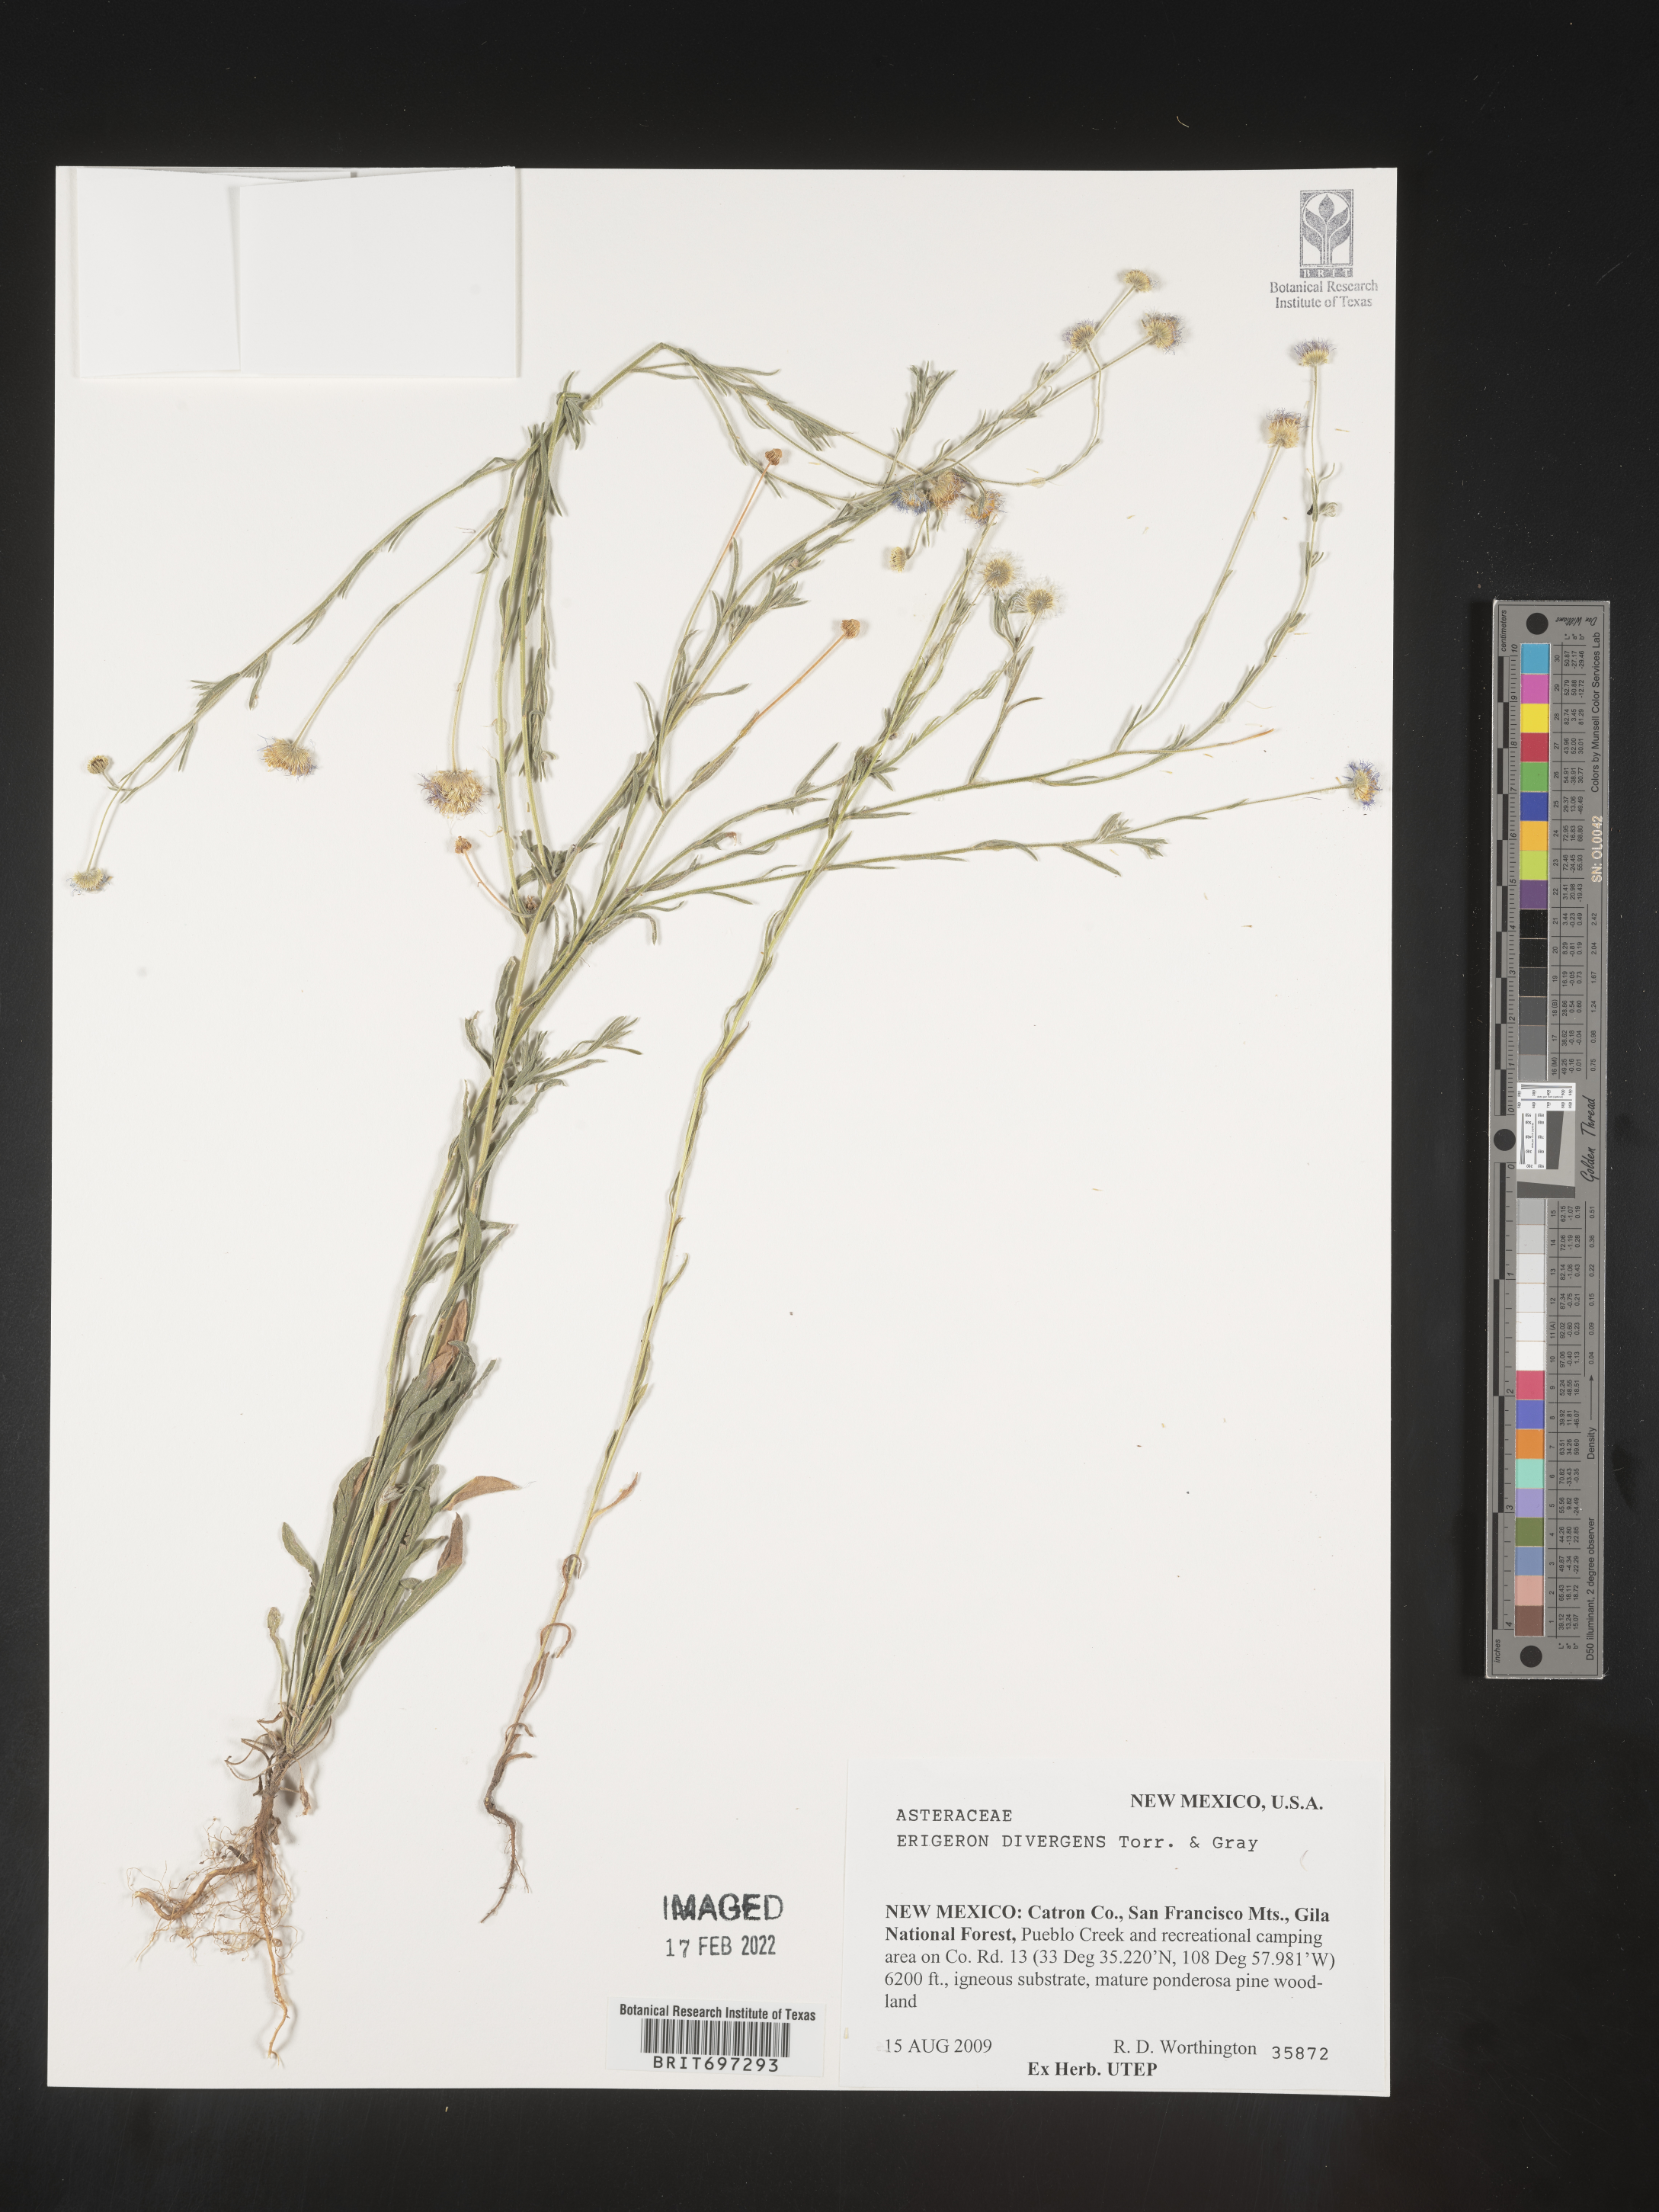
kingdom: Plantae
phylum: Tracheophyta
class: Magnoliopsida
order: Asterales
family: Asteraceae
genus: Erigeron
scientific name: Erigeron divergens
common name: Diffuse fleabane
